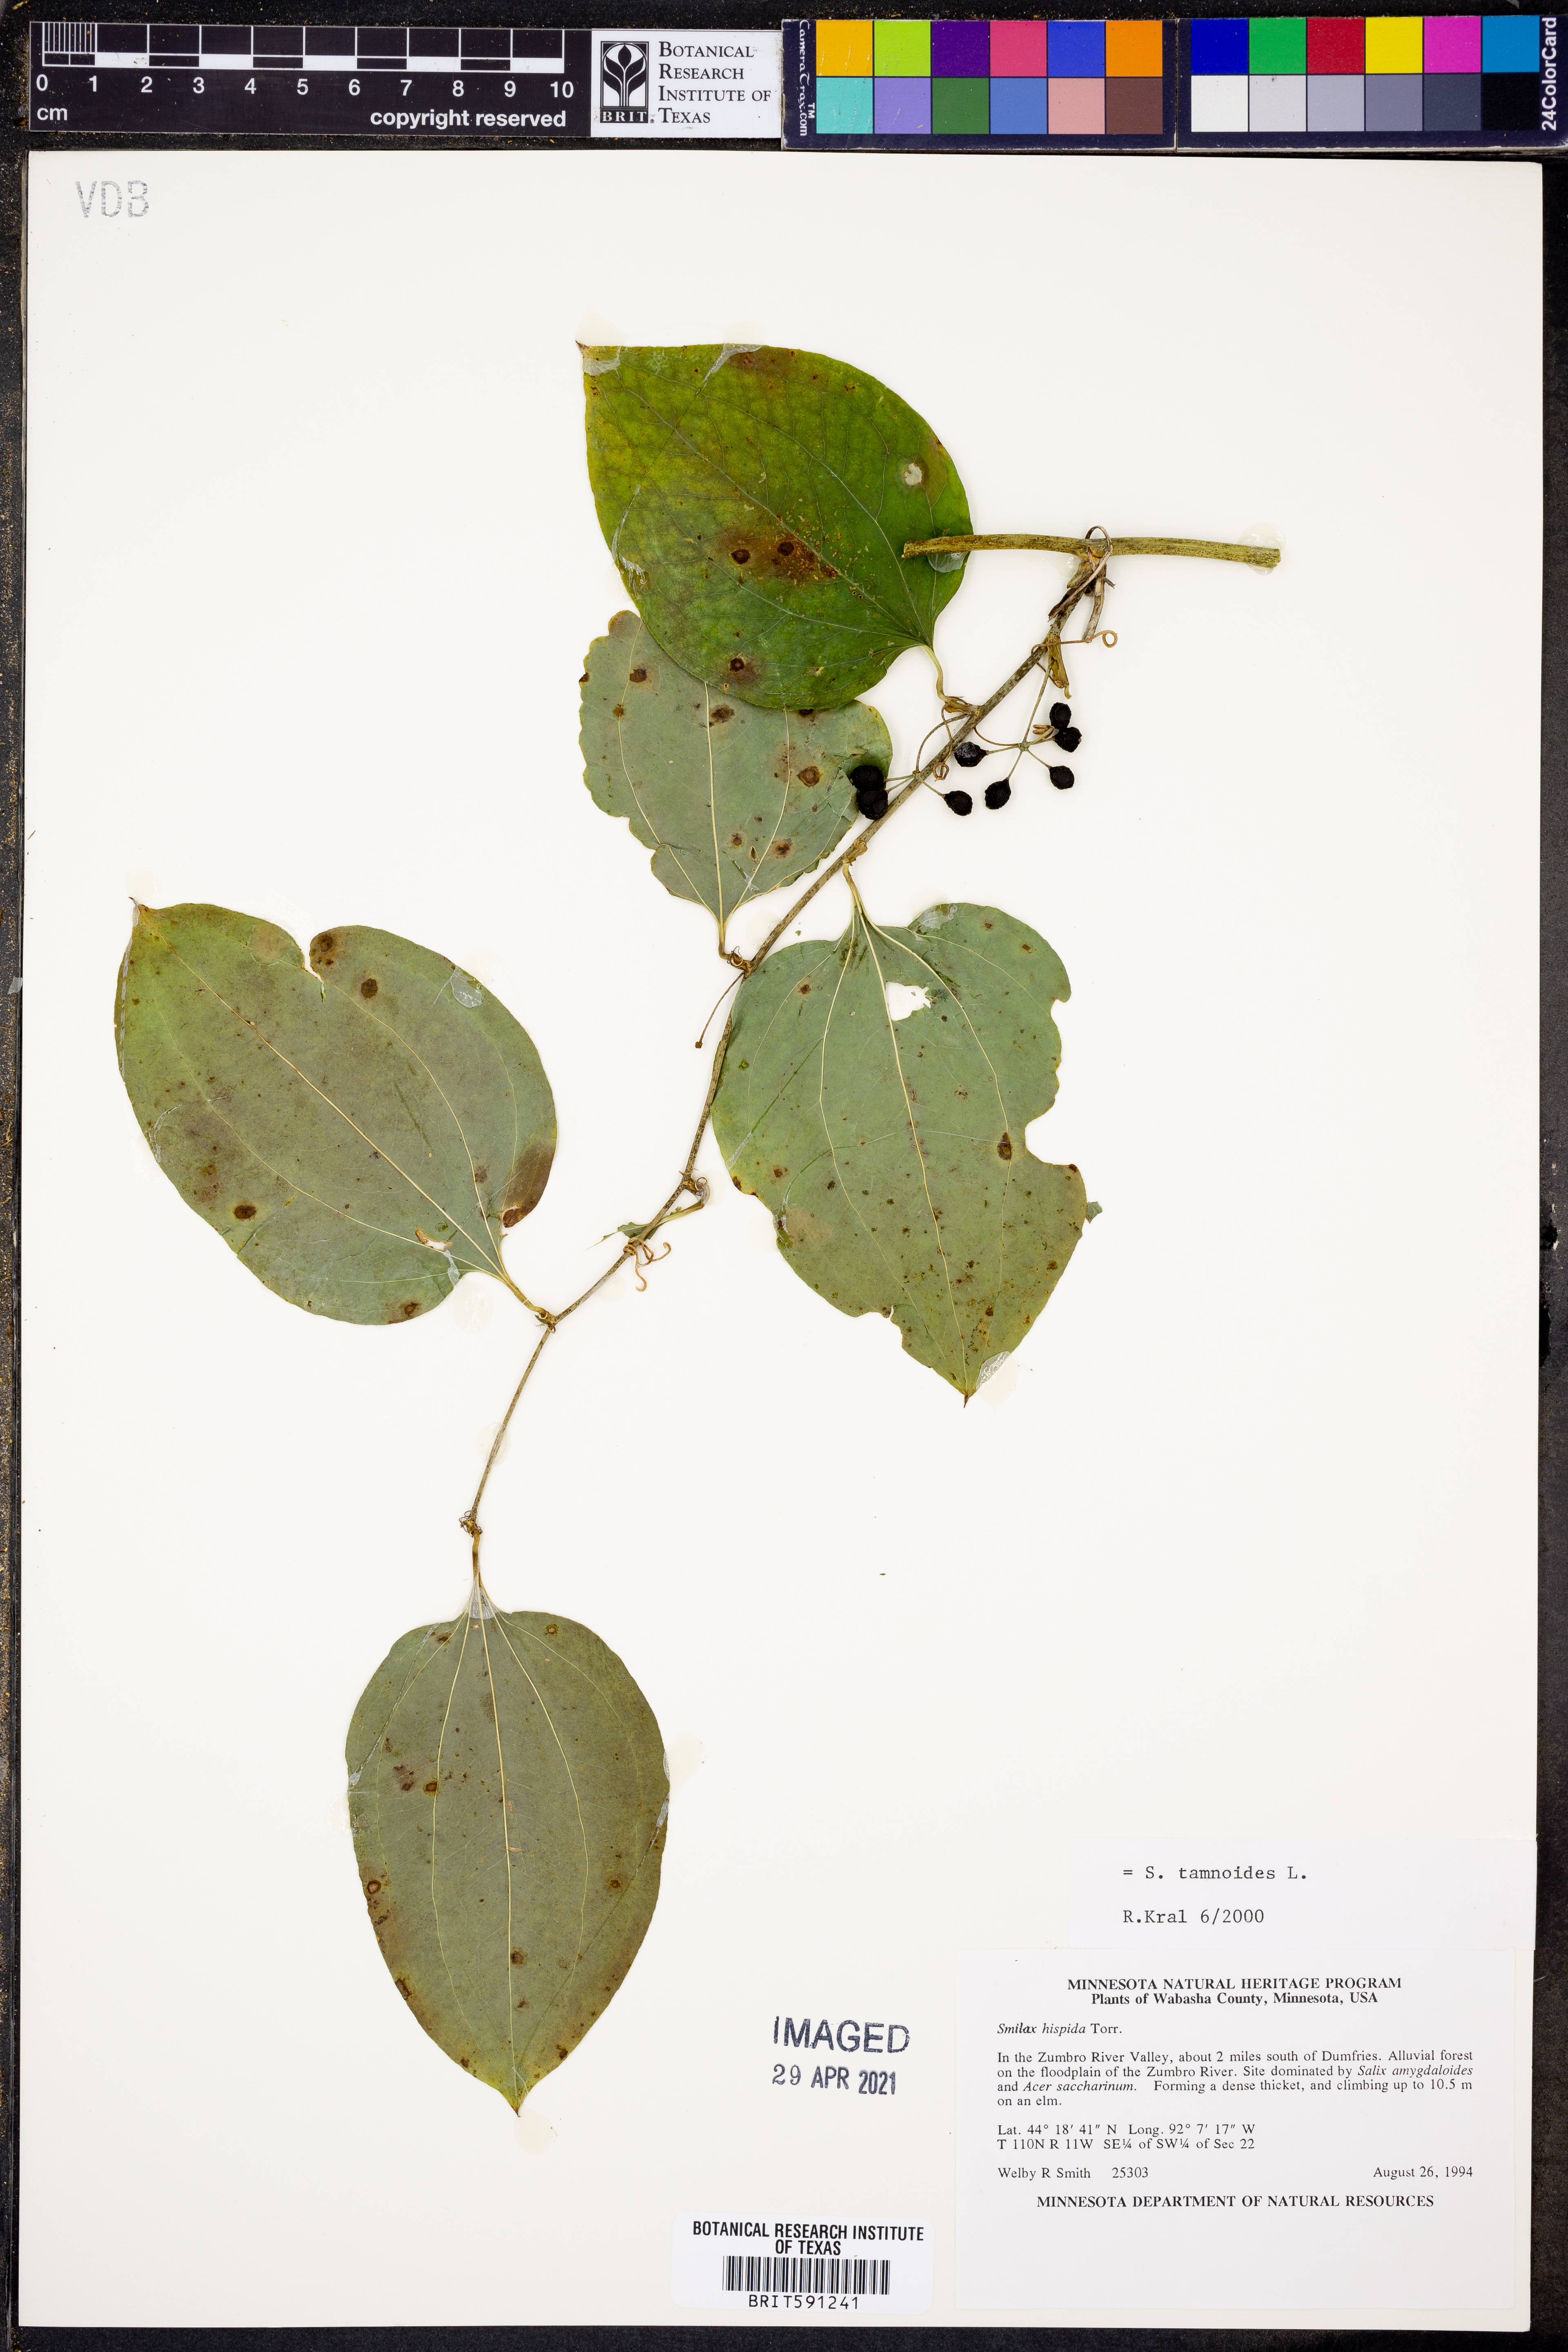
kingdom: Plantae
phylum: Tracheophyta
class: Liliopsida
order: Liliales
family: Smilacaceae
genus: Smilax
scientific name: Smilax tamnoides
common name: Hellfetter
